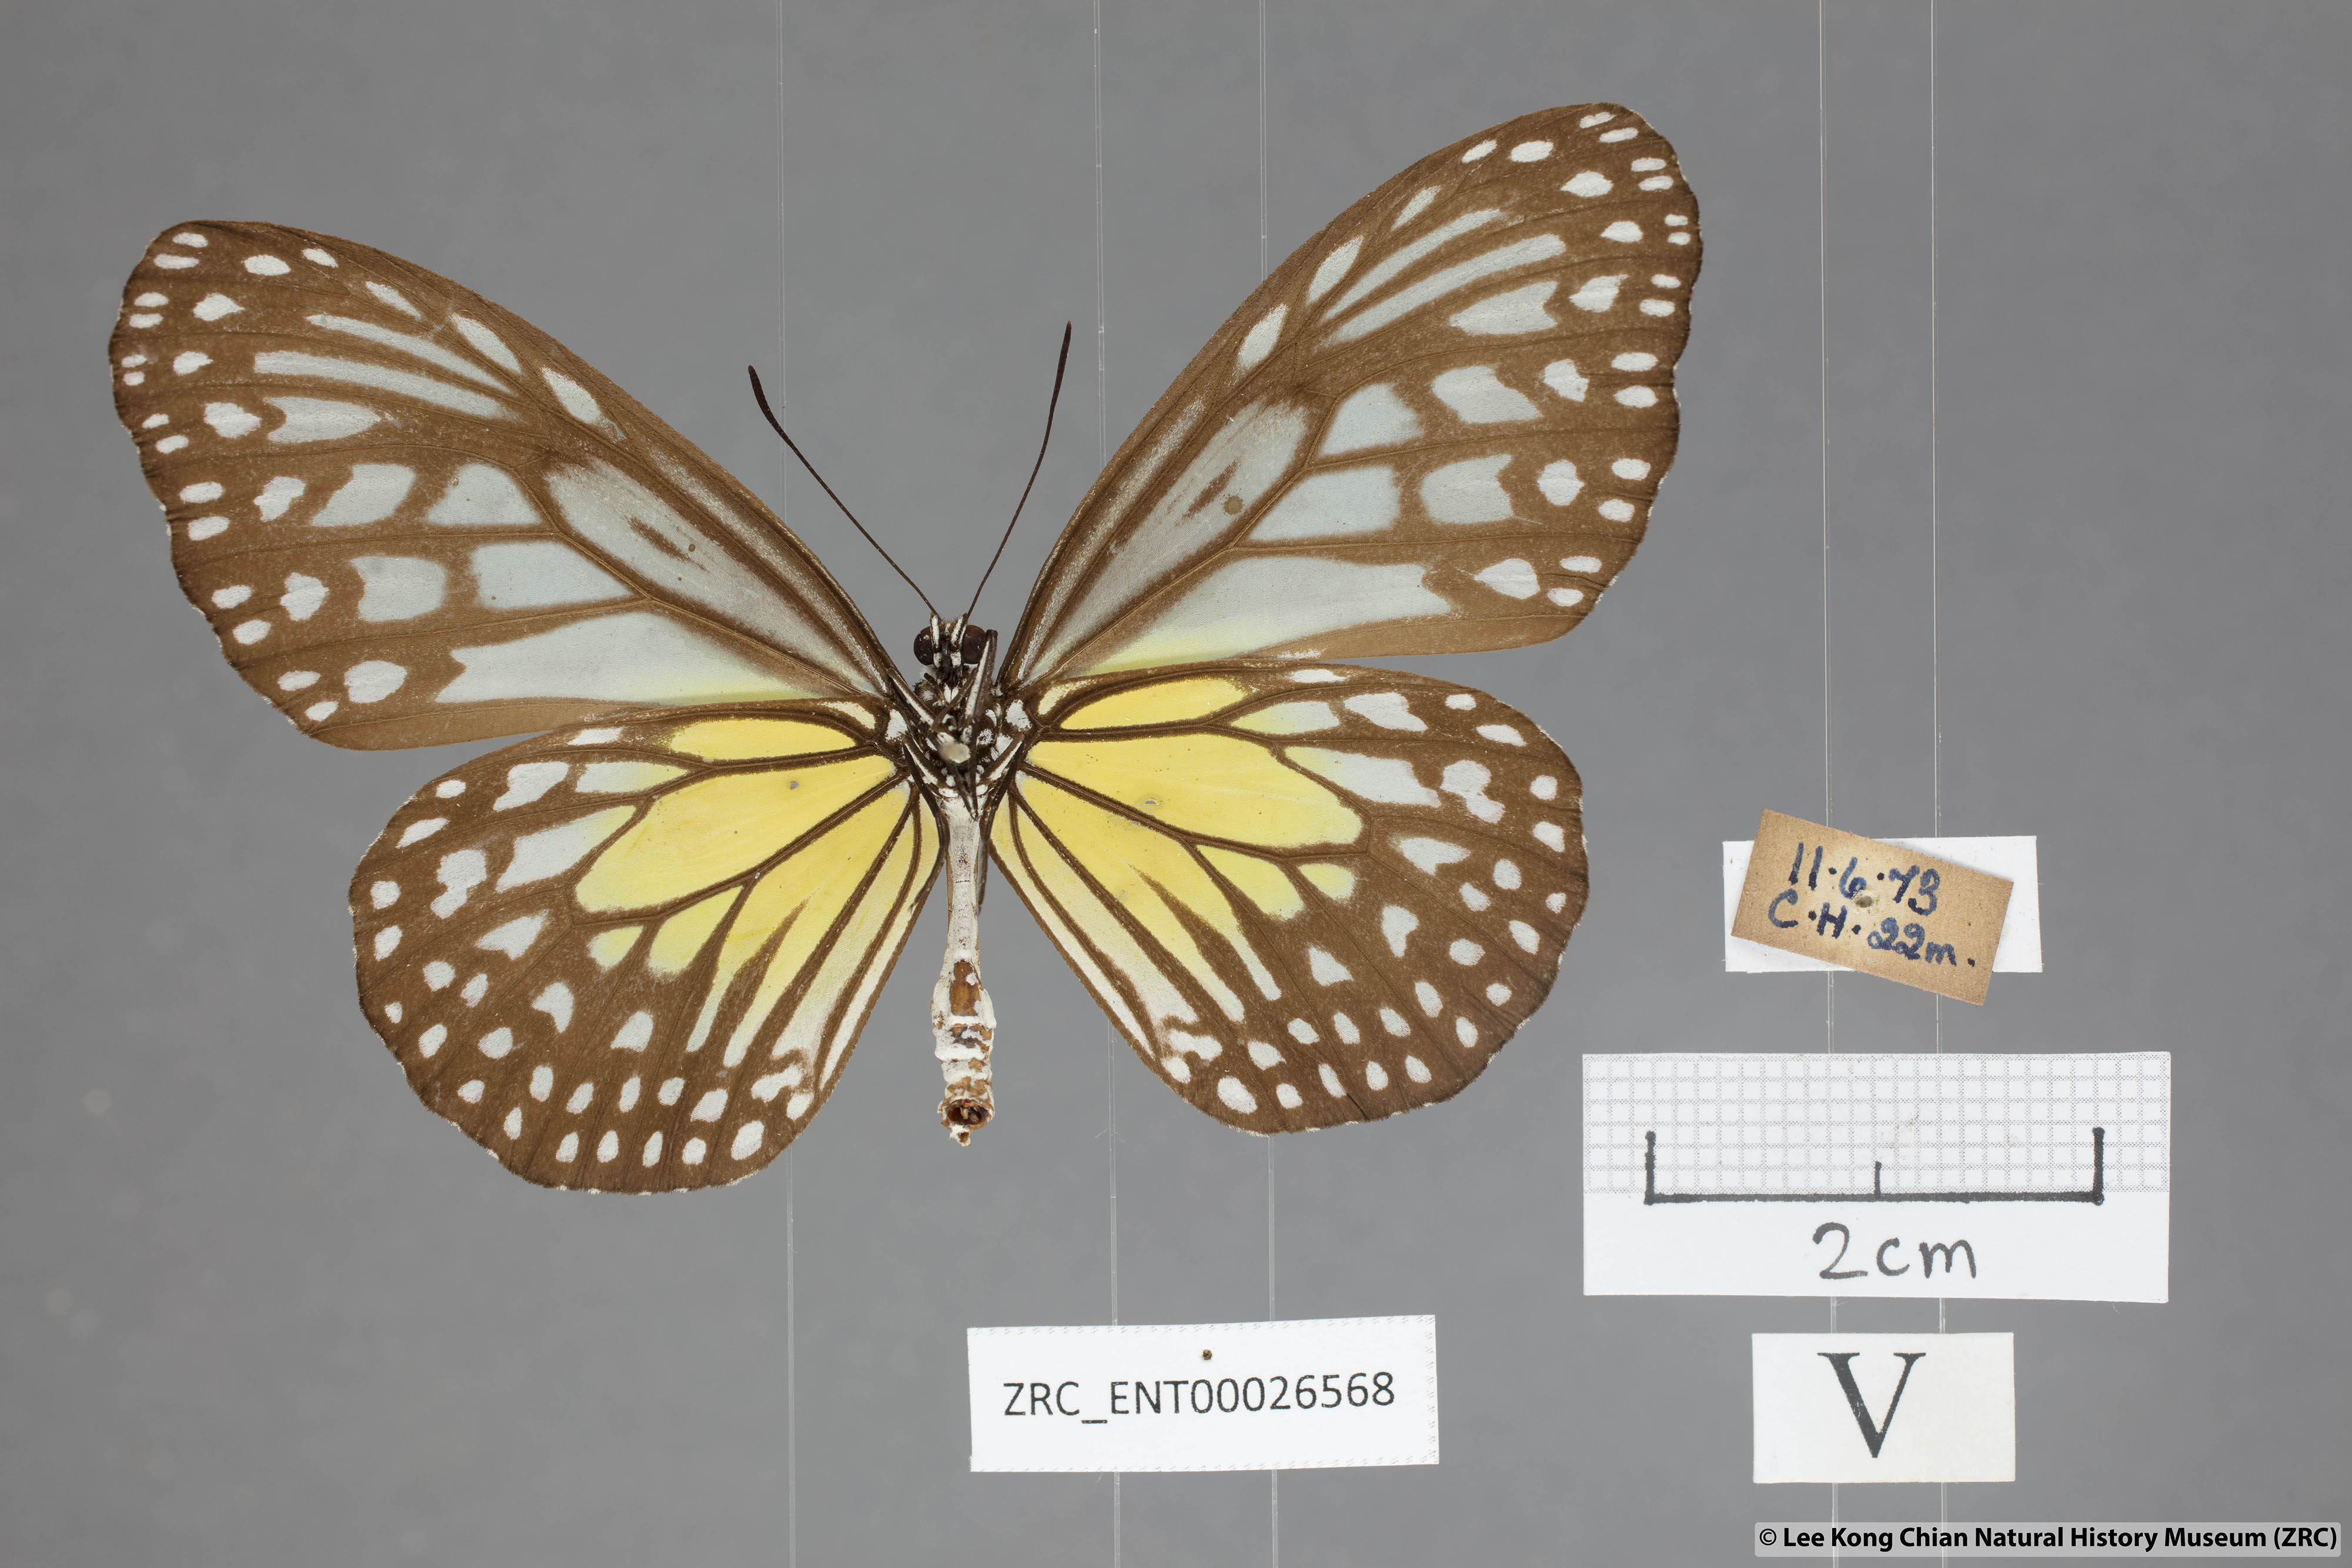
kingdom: Animalia
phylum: Arthropoda
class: Insecta
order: Lepidoptera
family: Nymphalidae
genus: Parantica
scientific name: Parantica aspasia
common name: Yellow glassy tiger
